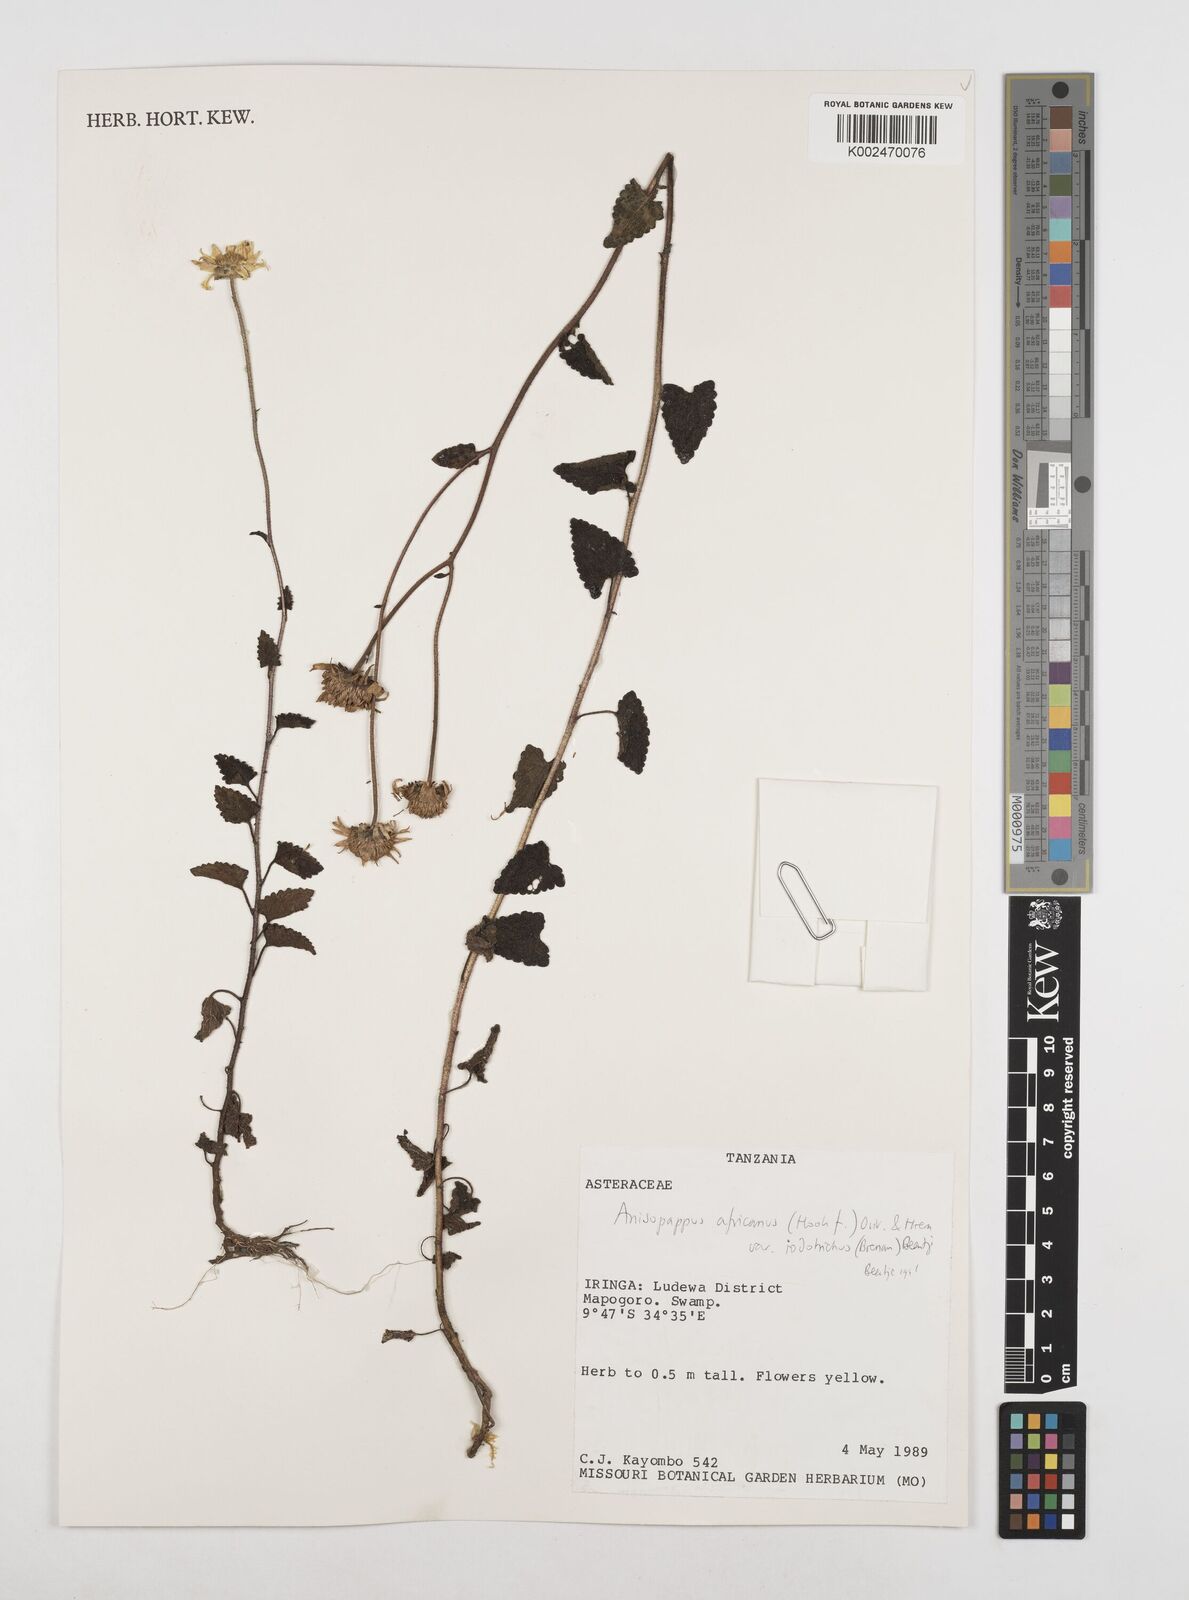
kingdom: Plantae
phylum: Tracheophyta
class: Magnoliopsida
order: Asterales
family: Asteraceae
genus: Anisopappus
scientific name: Anisopappus buchwaldii
